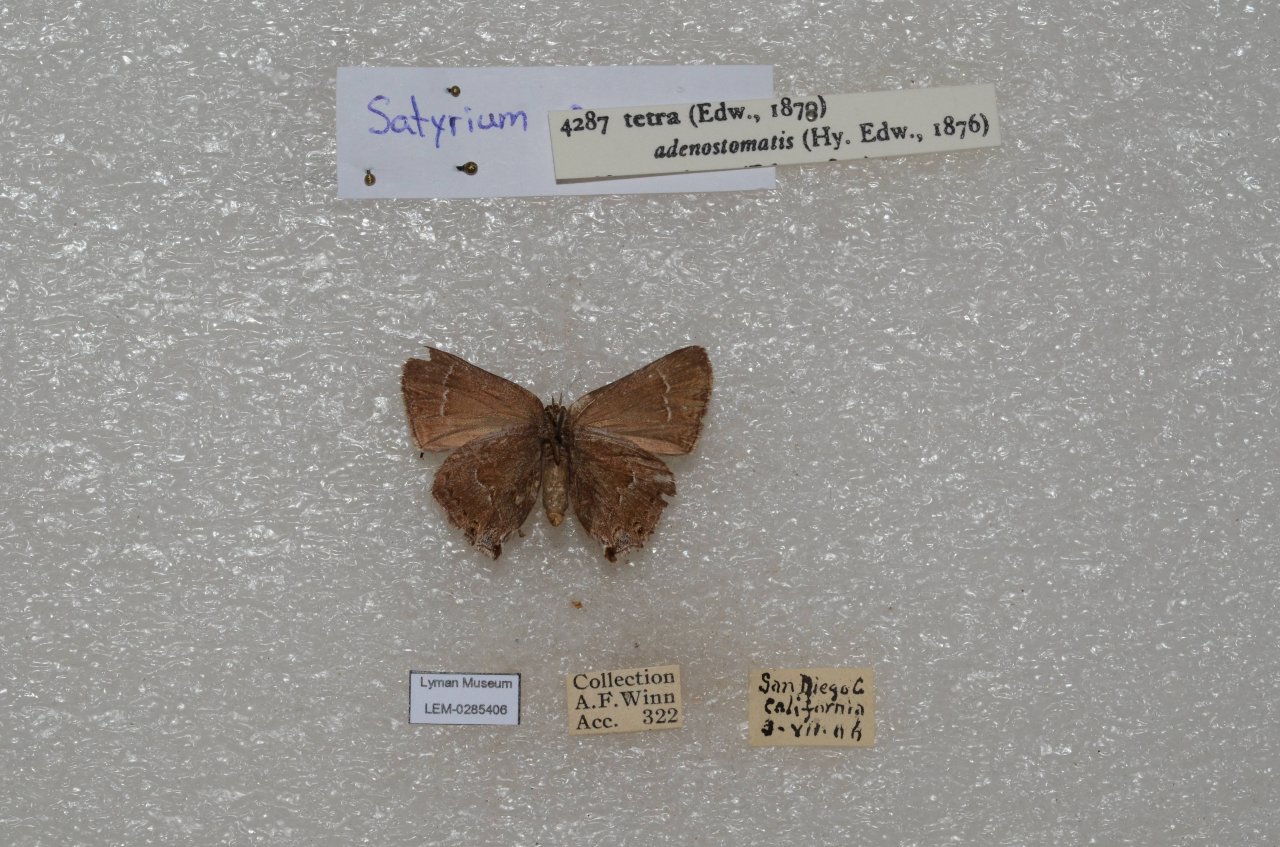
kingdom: Animalia
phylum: Arthropoda
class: Insecta
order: Lepidoptera
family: Lycaenidae
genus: Strymon
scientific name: Strymon saepium
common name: Hedgerow Hairstreak
